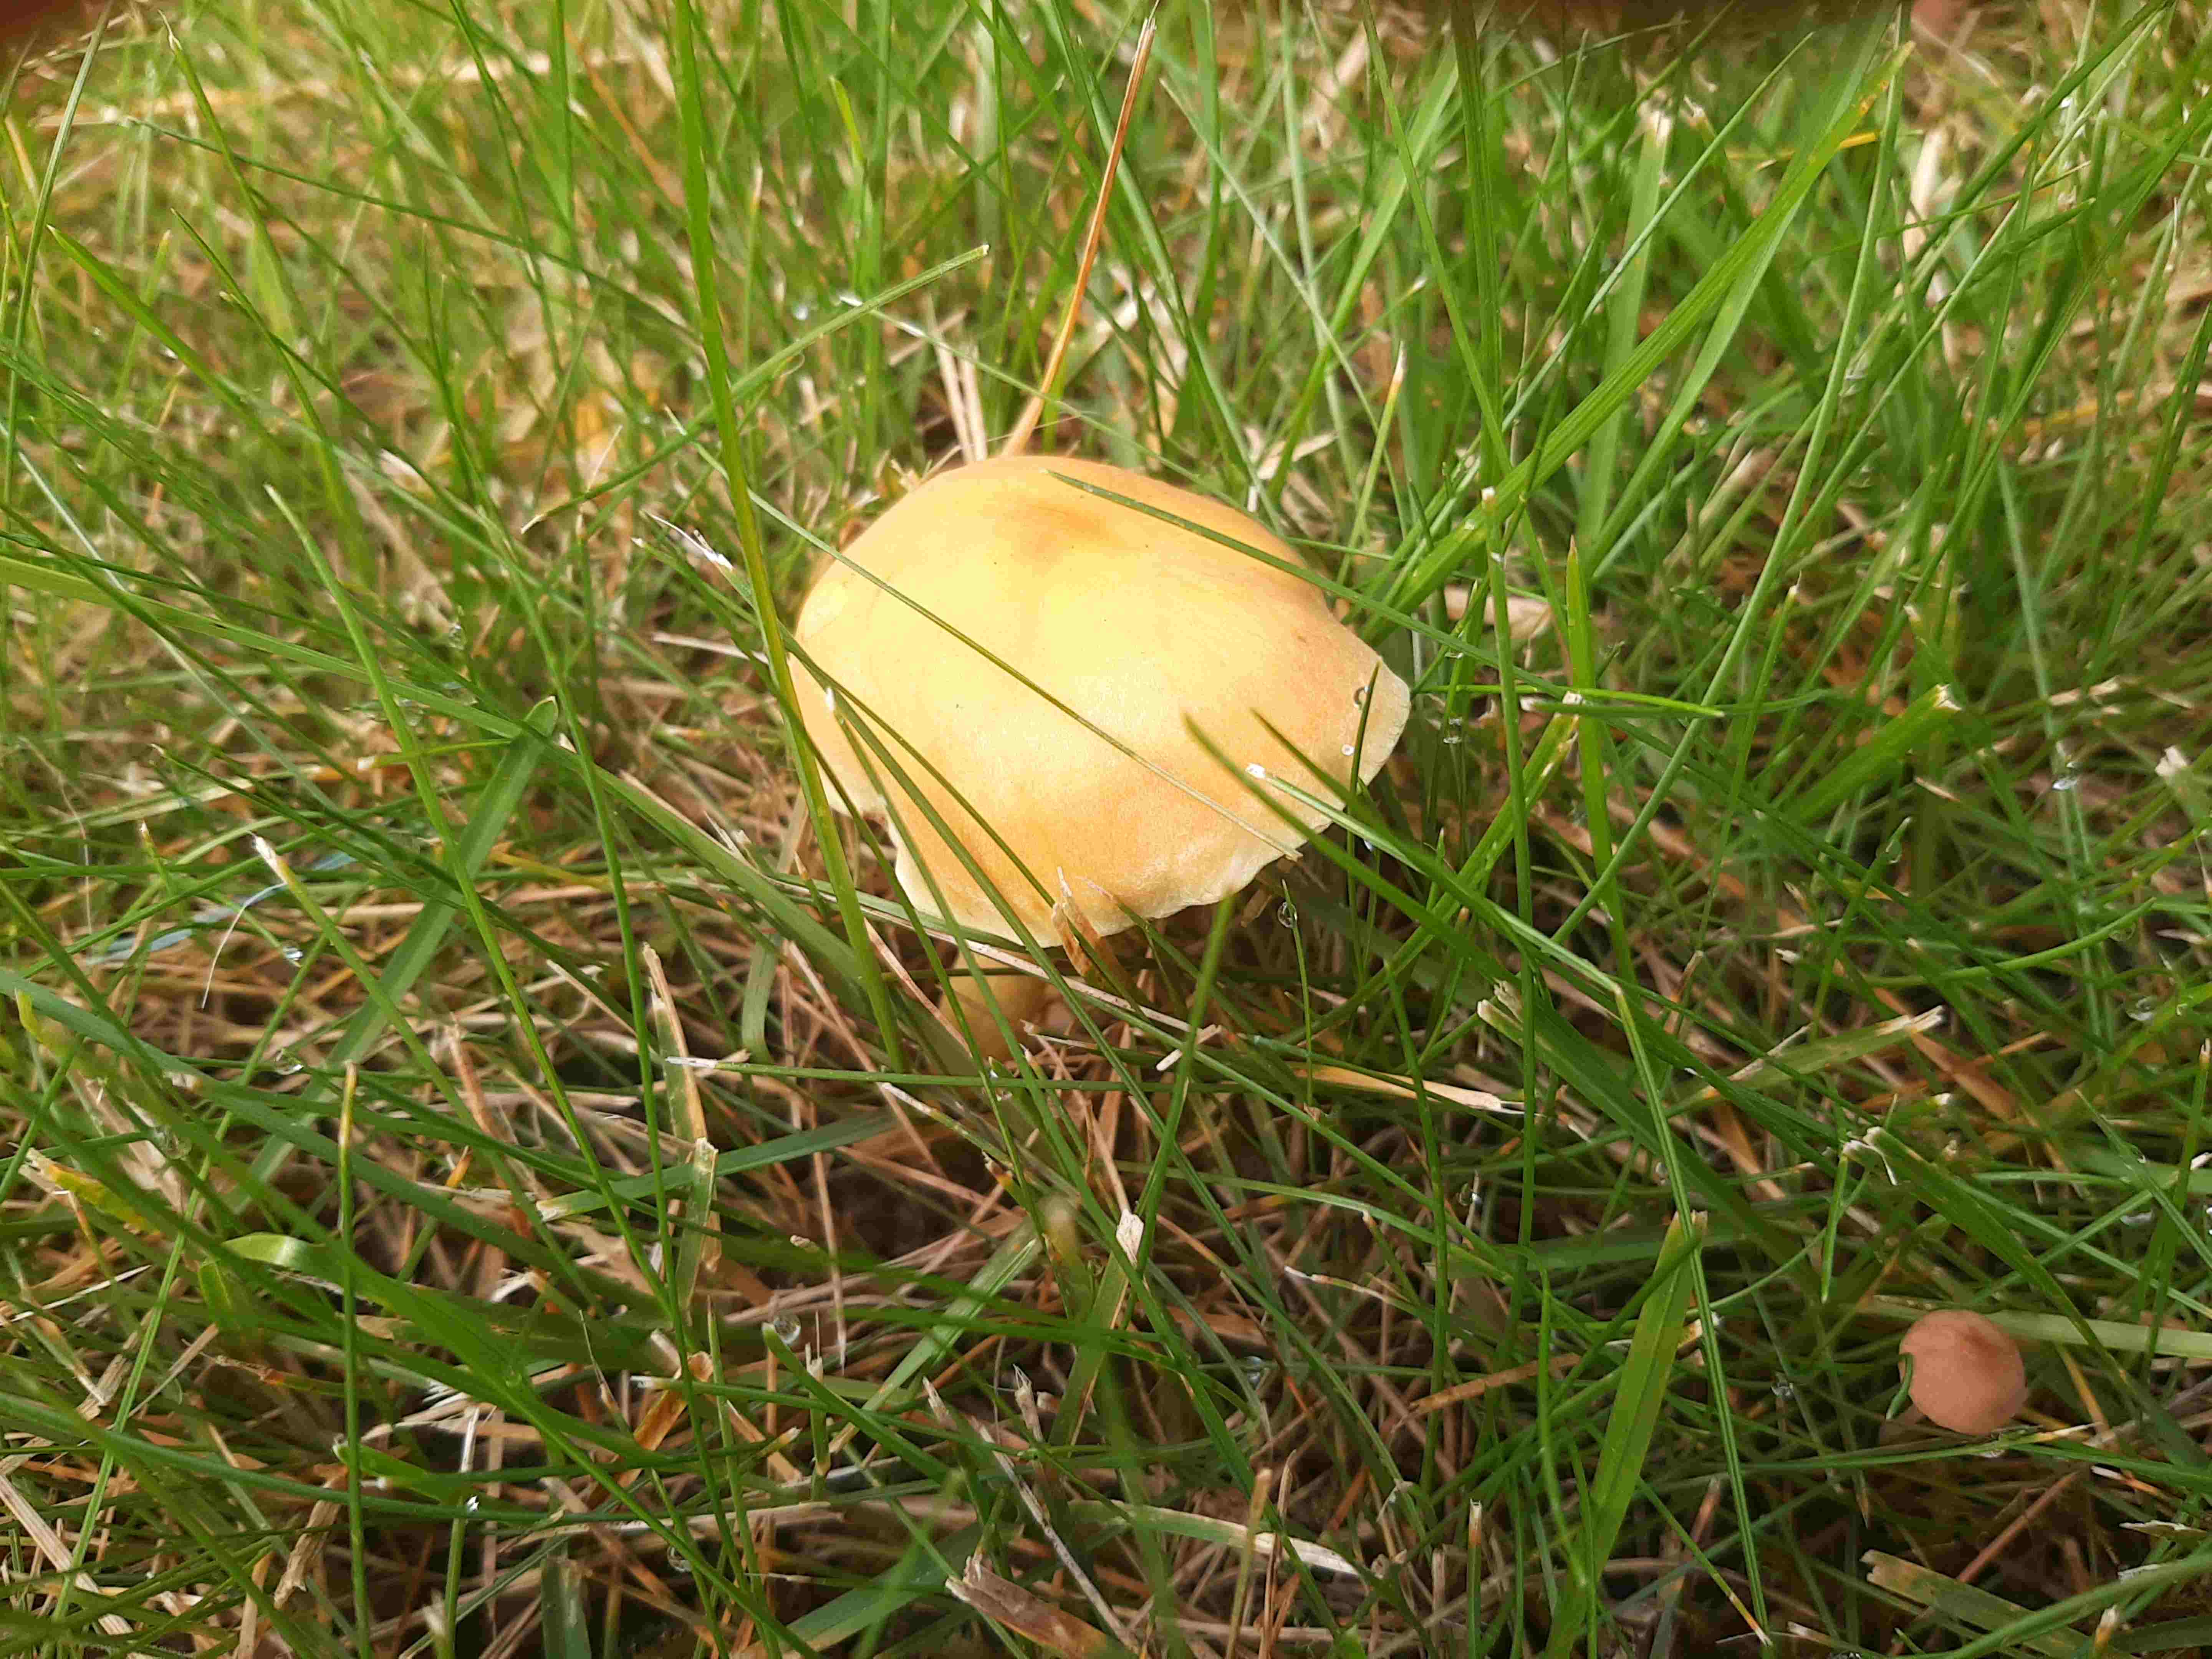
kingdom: Fungi
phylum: Basidiomycota
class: Agaricomycetes
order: Agaricales
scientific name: Agaricales
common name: champignonordenen
